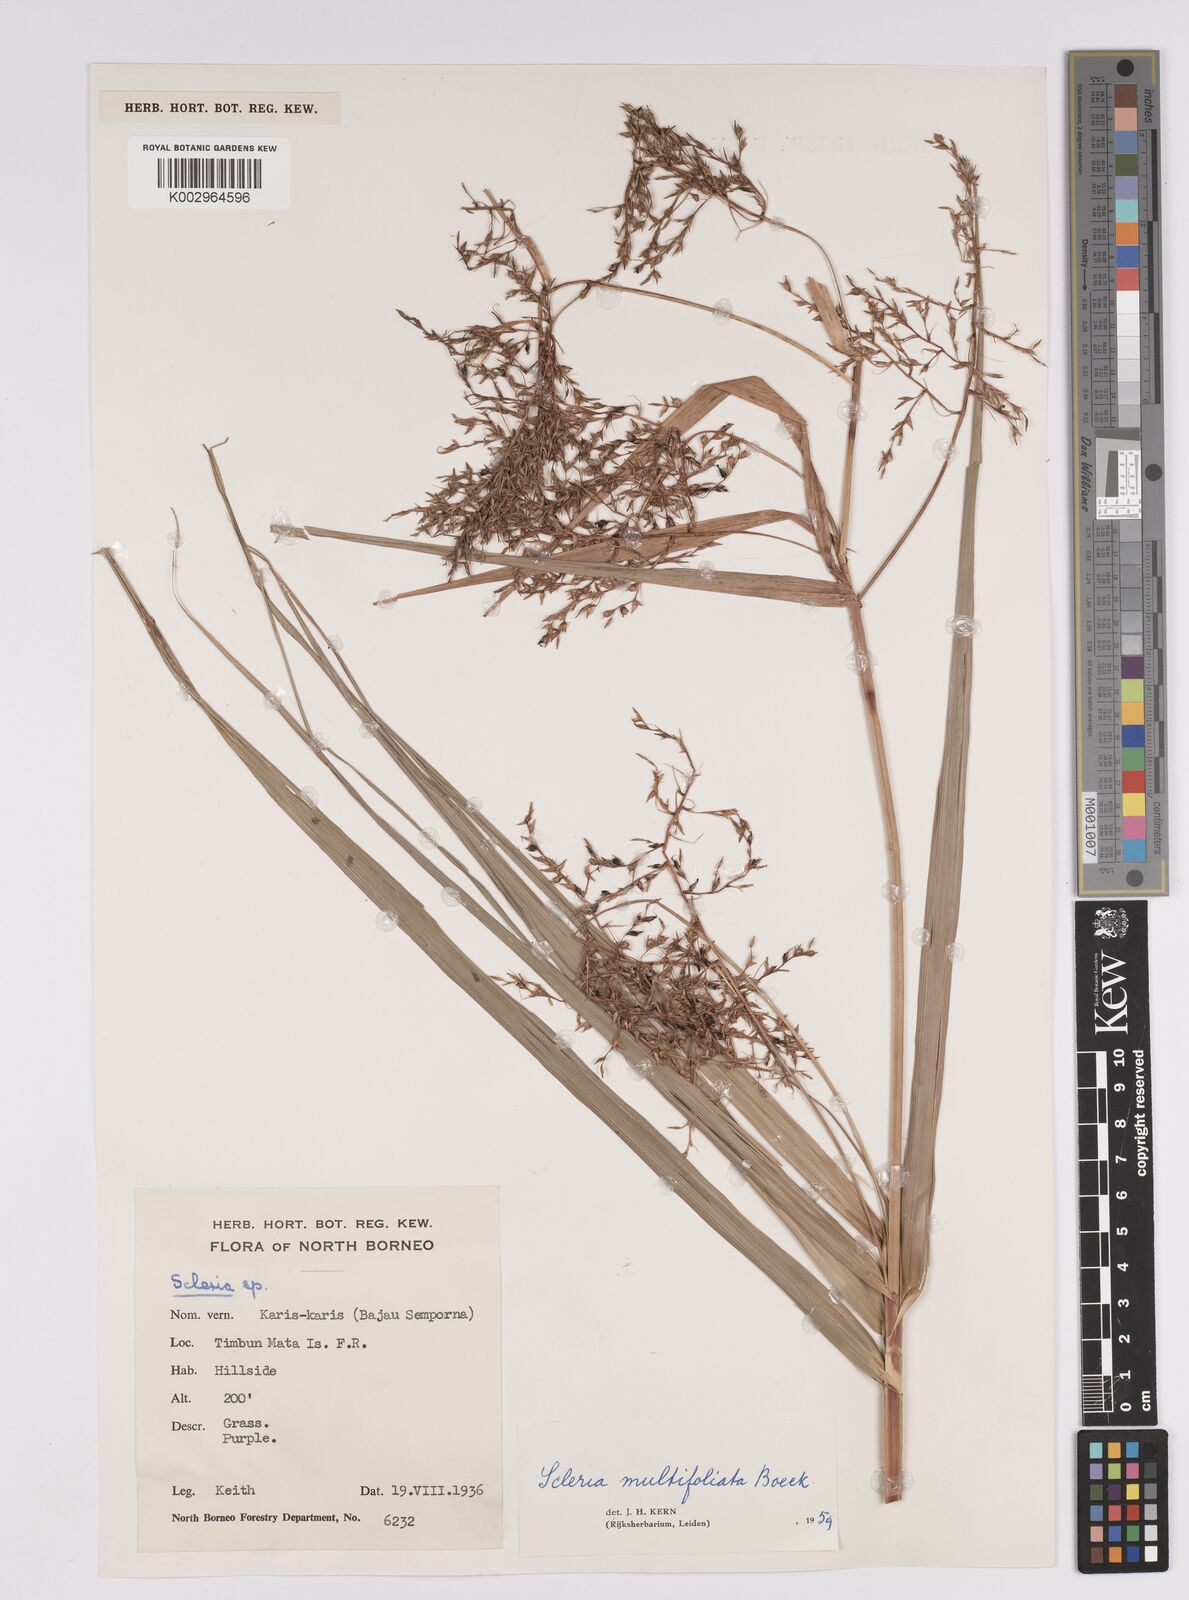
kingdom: Plantae
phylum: Tracheophyta
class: Liliopsida
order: Poales
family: Cyperaceae
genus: Scleria
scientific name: Scleria purpurascens
